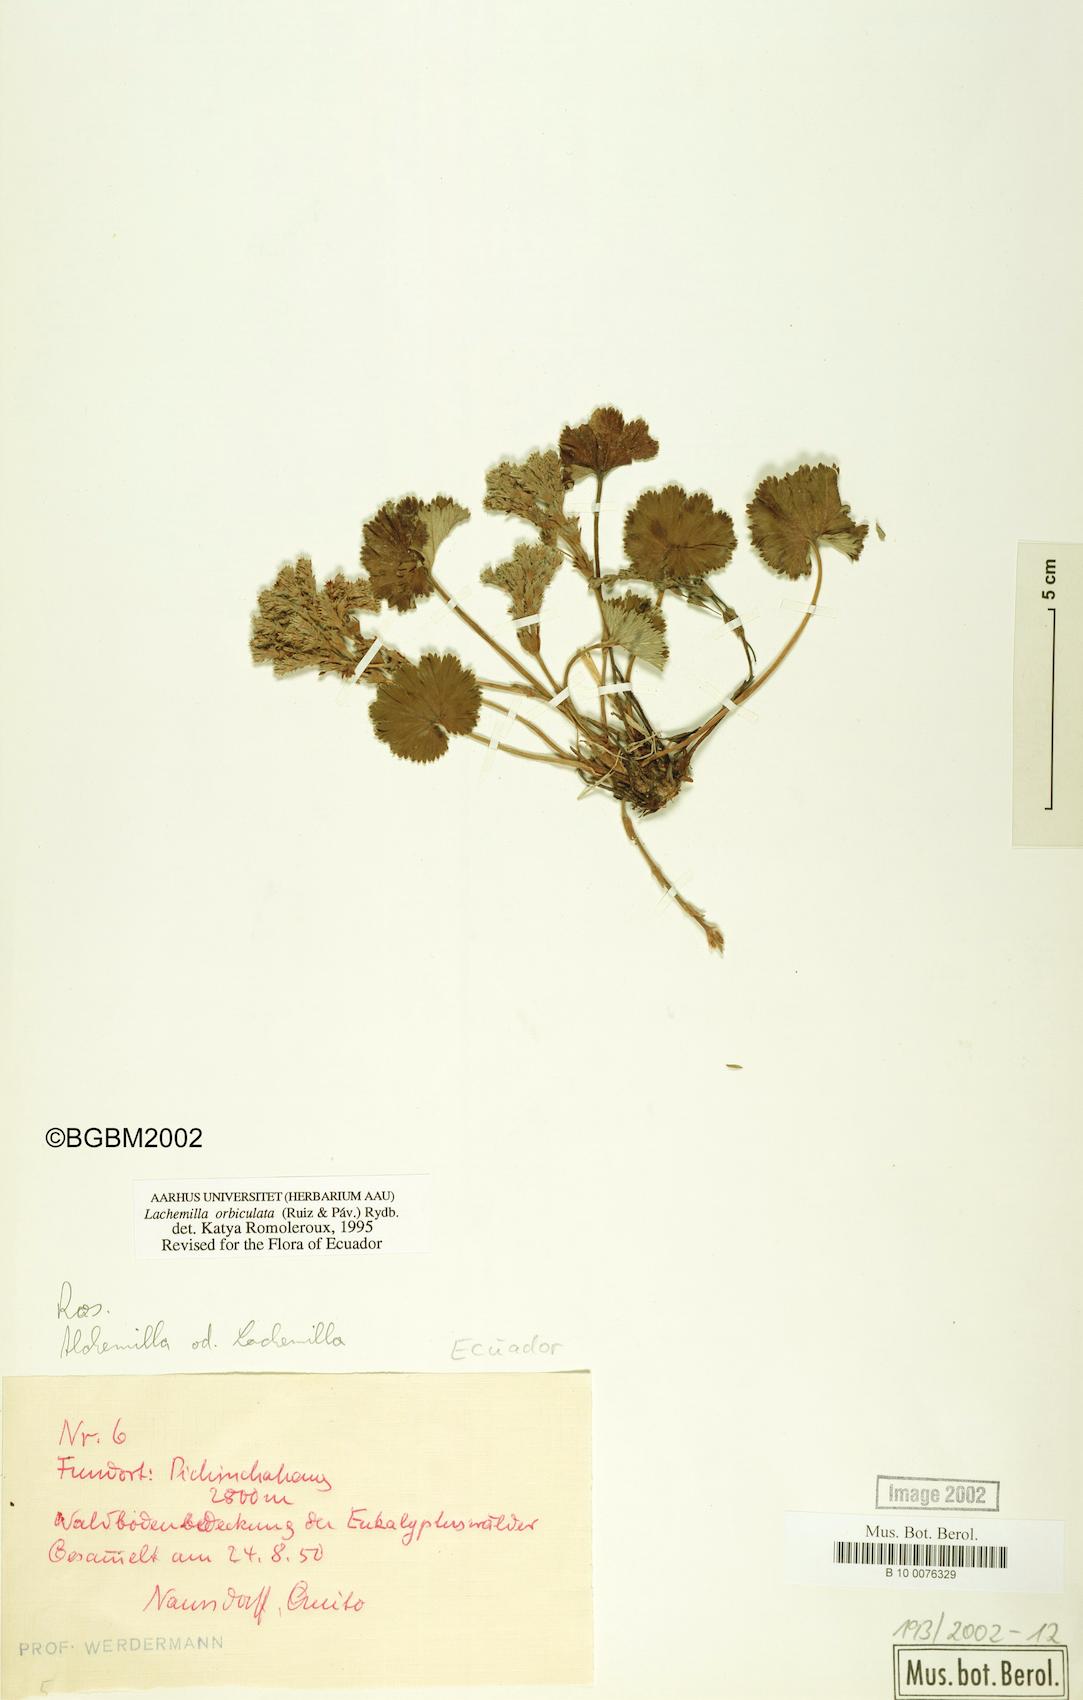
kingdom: Plantae
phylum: Tracheophyta
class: Magnoliopsida
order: Rosales
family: Rosaceae
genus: Lachemilla
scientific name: Lachemilla orbiculata
